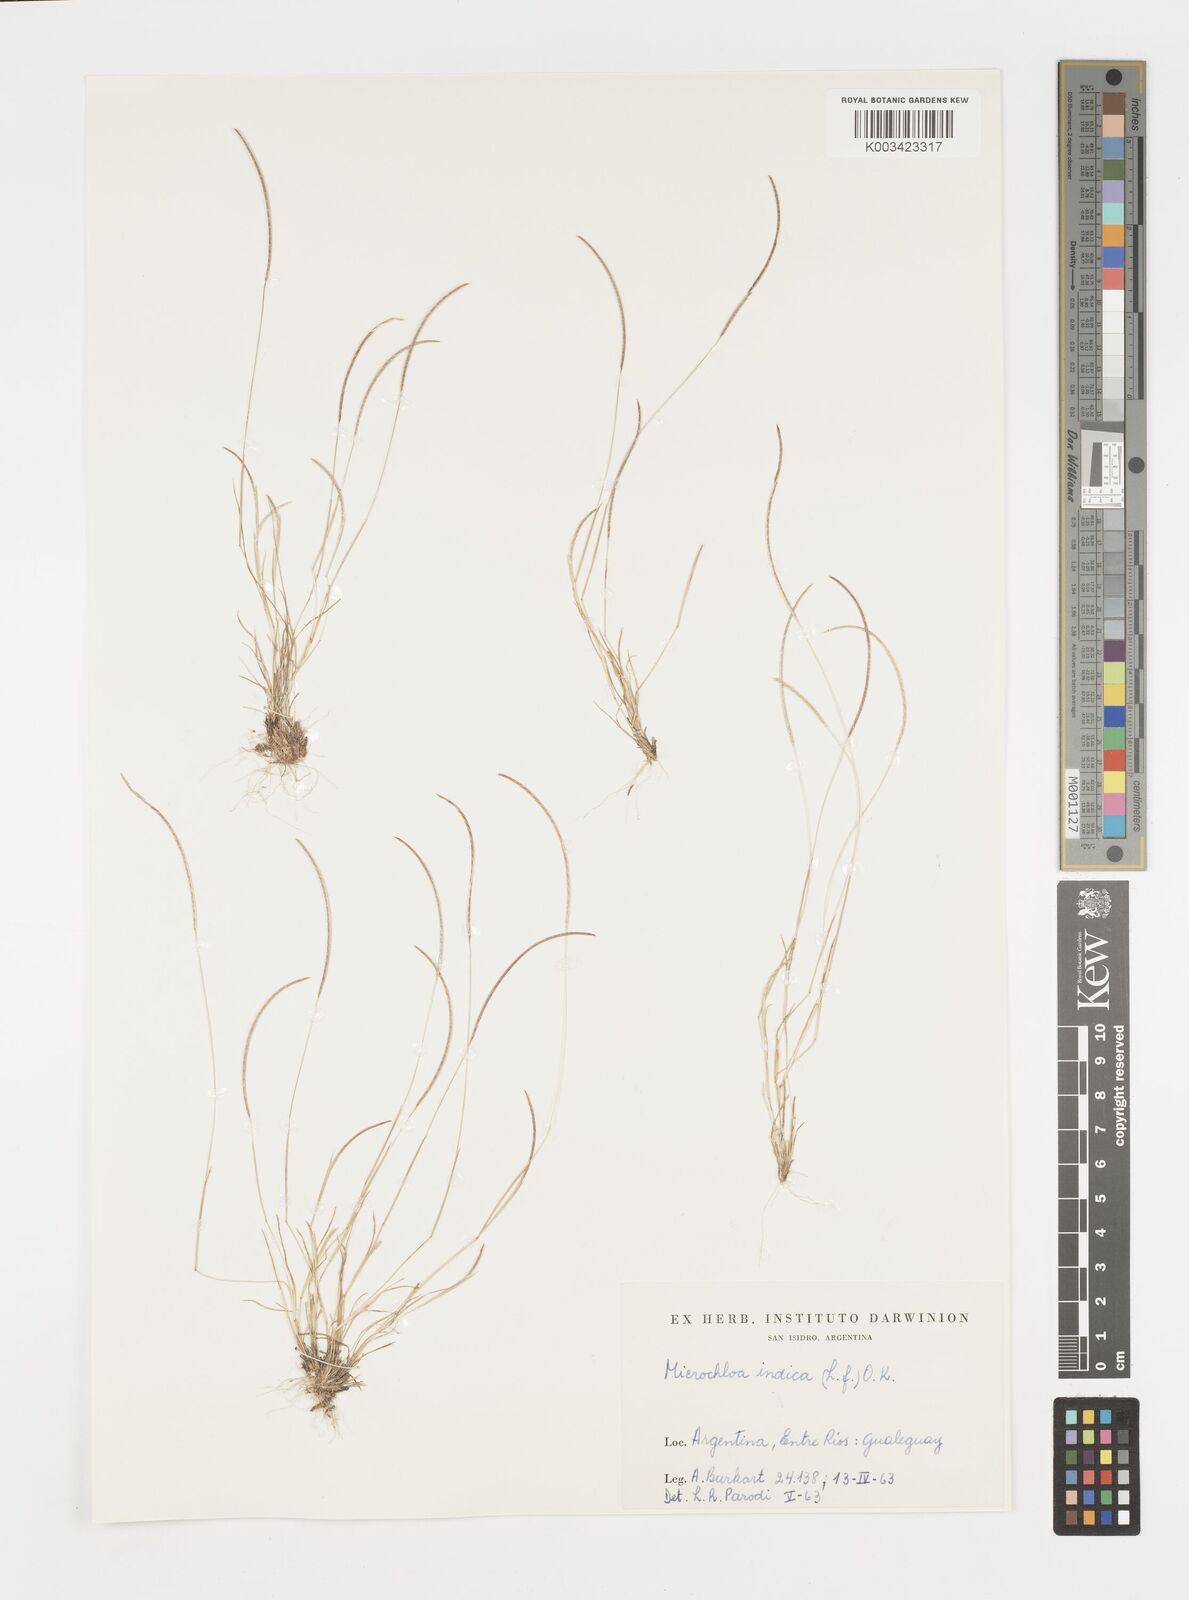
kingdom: Plantae
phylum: Tracheophyta
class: Liliopsida
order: Poales
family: Poaceae
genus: Microchloa
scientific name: Microchloa indica
